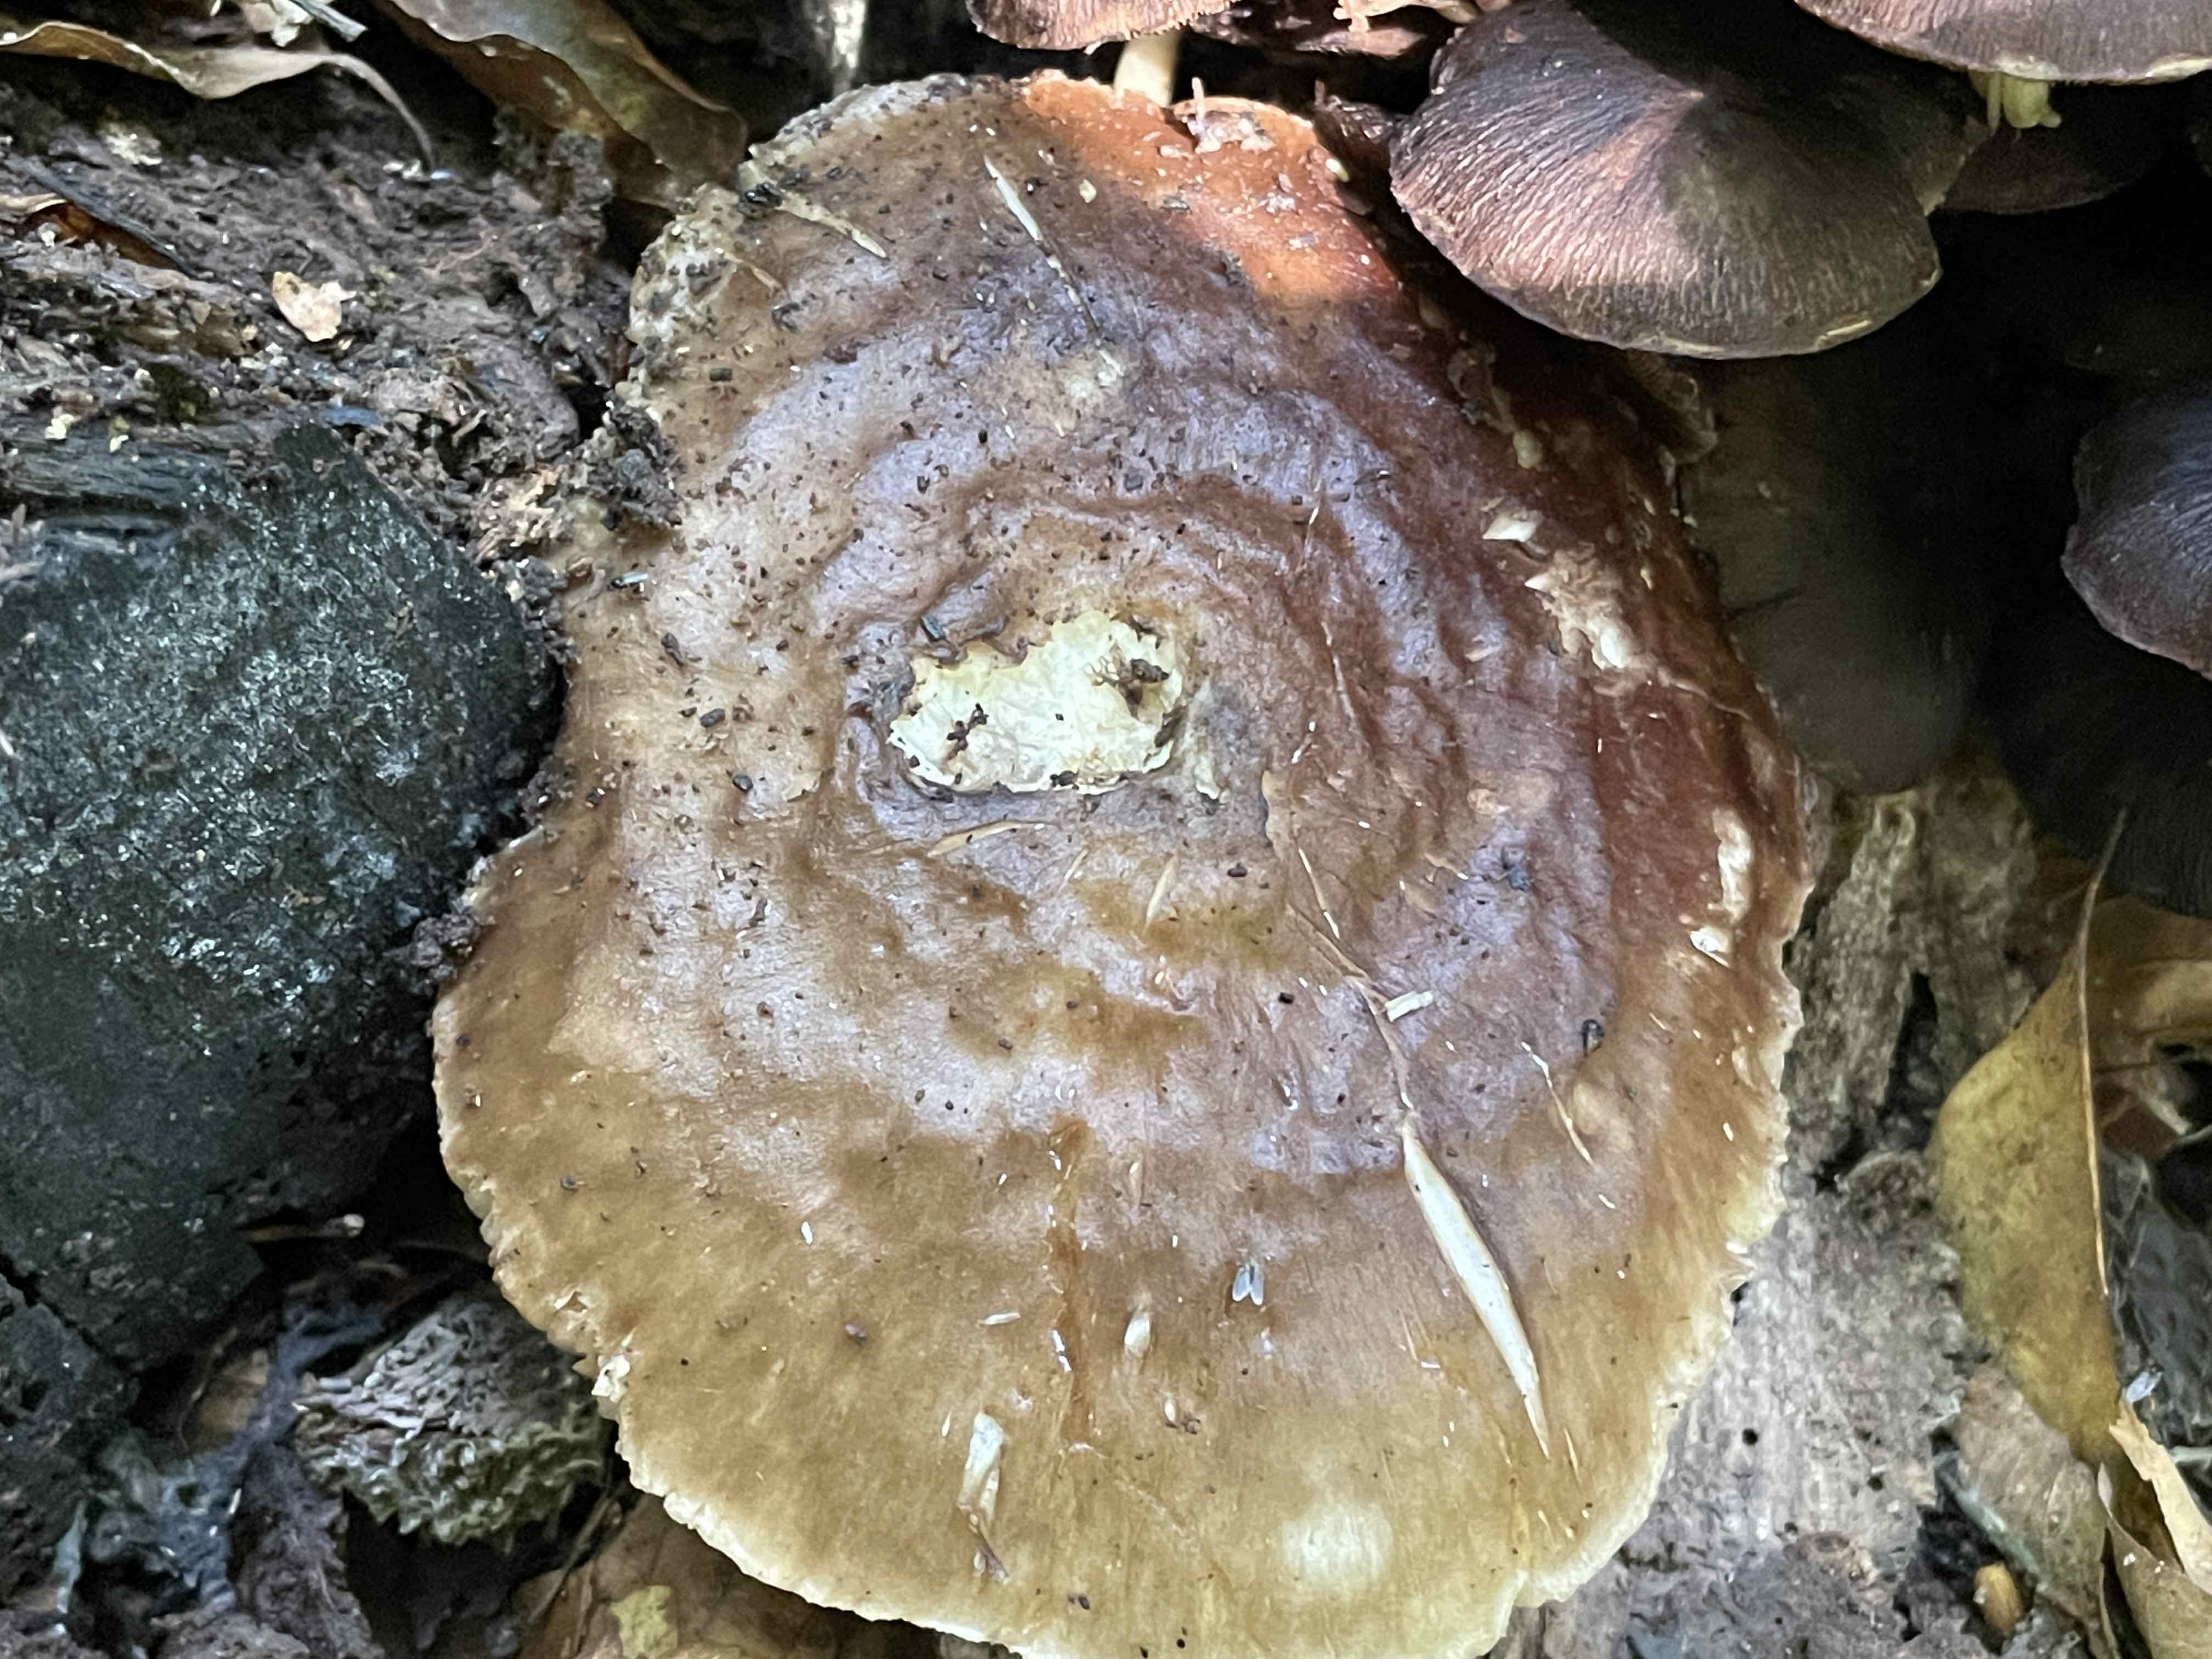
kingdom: Fungi
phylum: Basidiomycota
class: Agaricomycetes
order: Agaricales
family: Pluteaceae
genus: Pluteus
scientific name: Pluteus cervinus
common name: sodfarvet skærmhat
